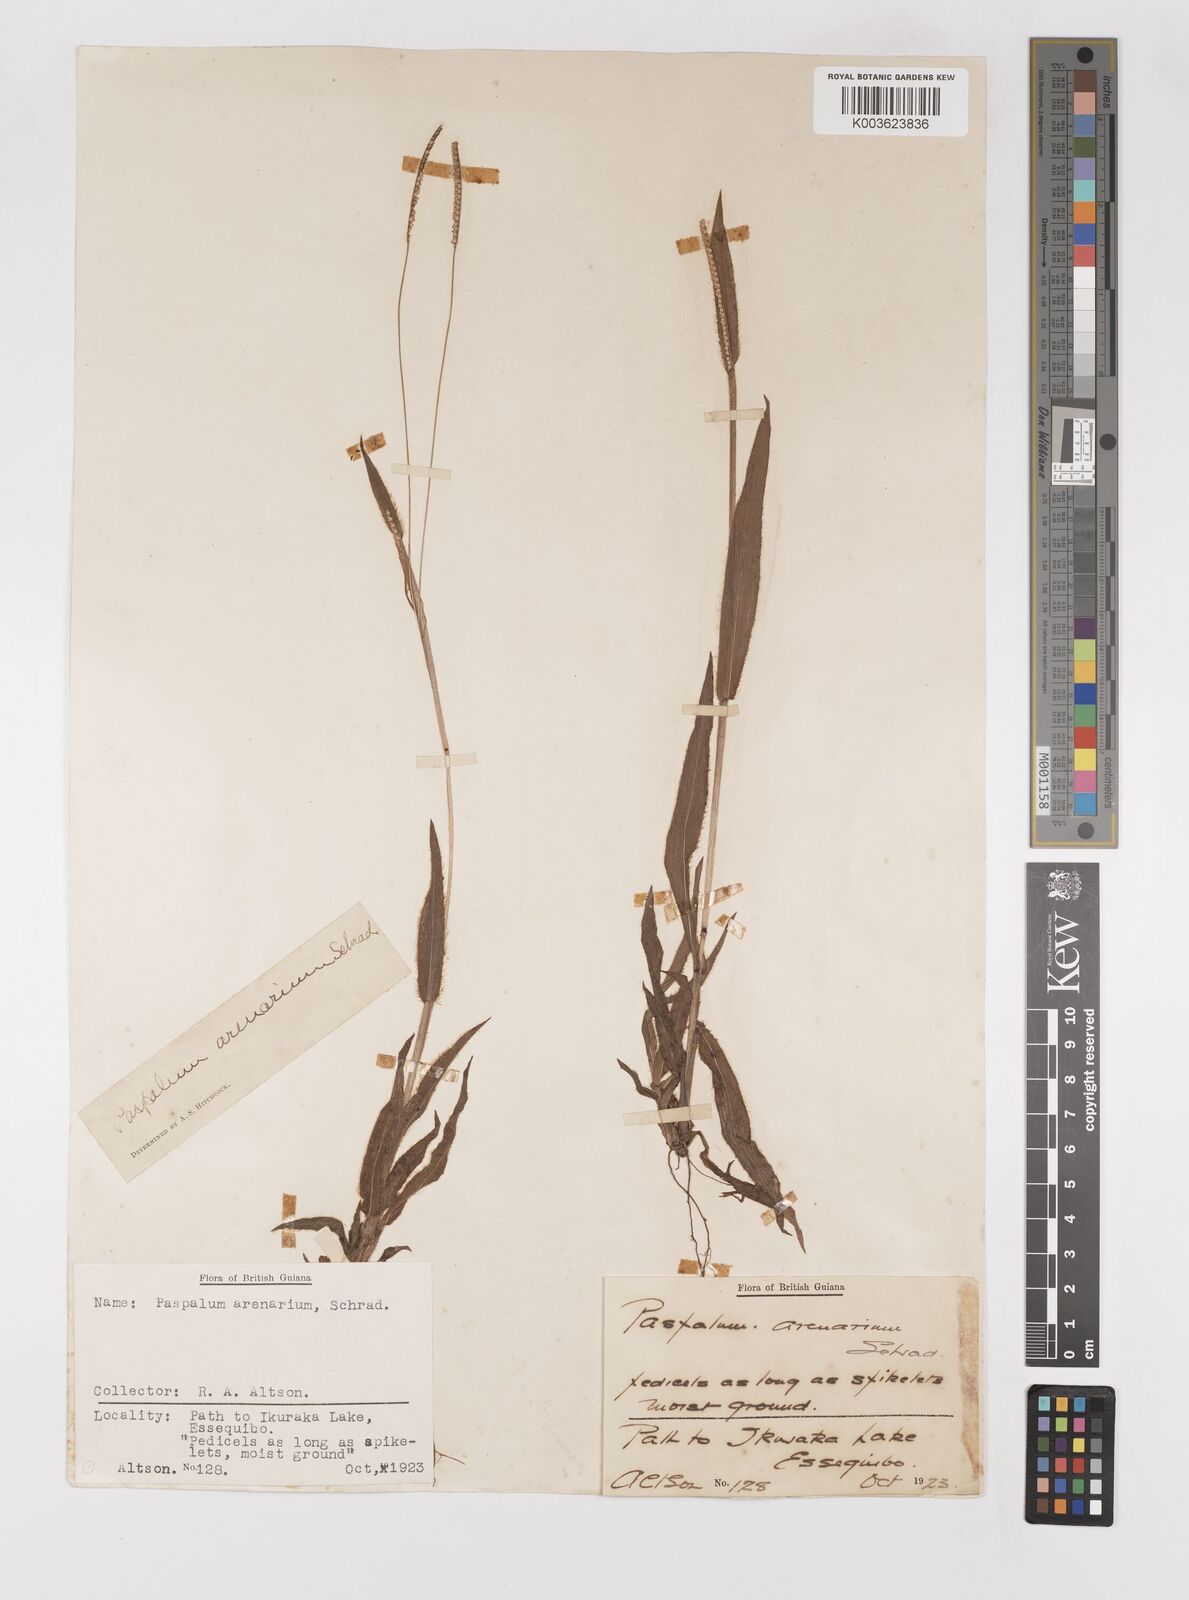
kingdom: Plantae
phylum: Tracheophyta
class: Liliopsida
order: Poales
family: Poaceae
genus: Paspalum
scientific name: Paspalum arenarium
